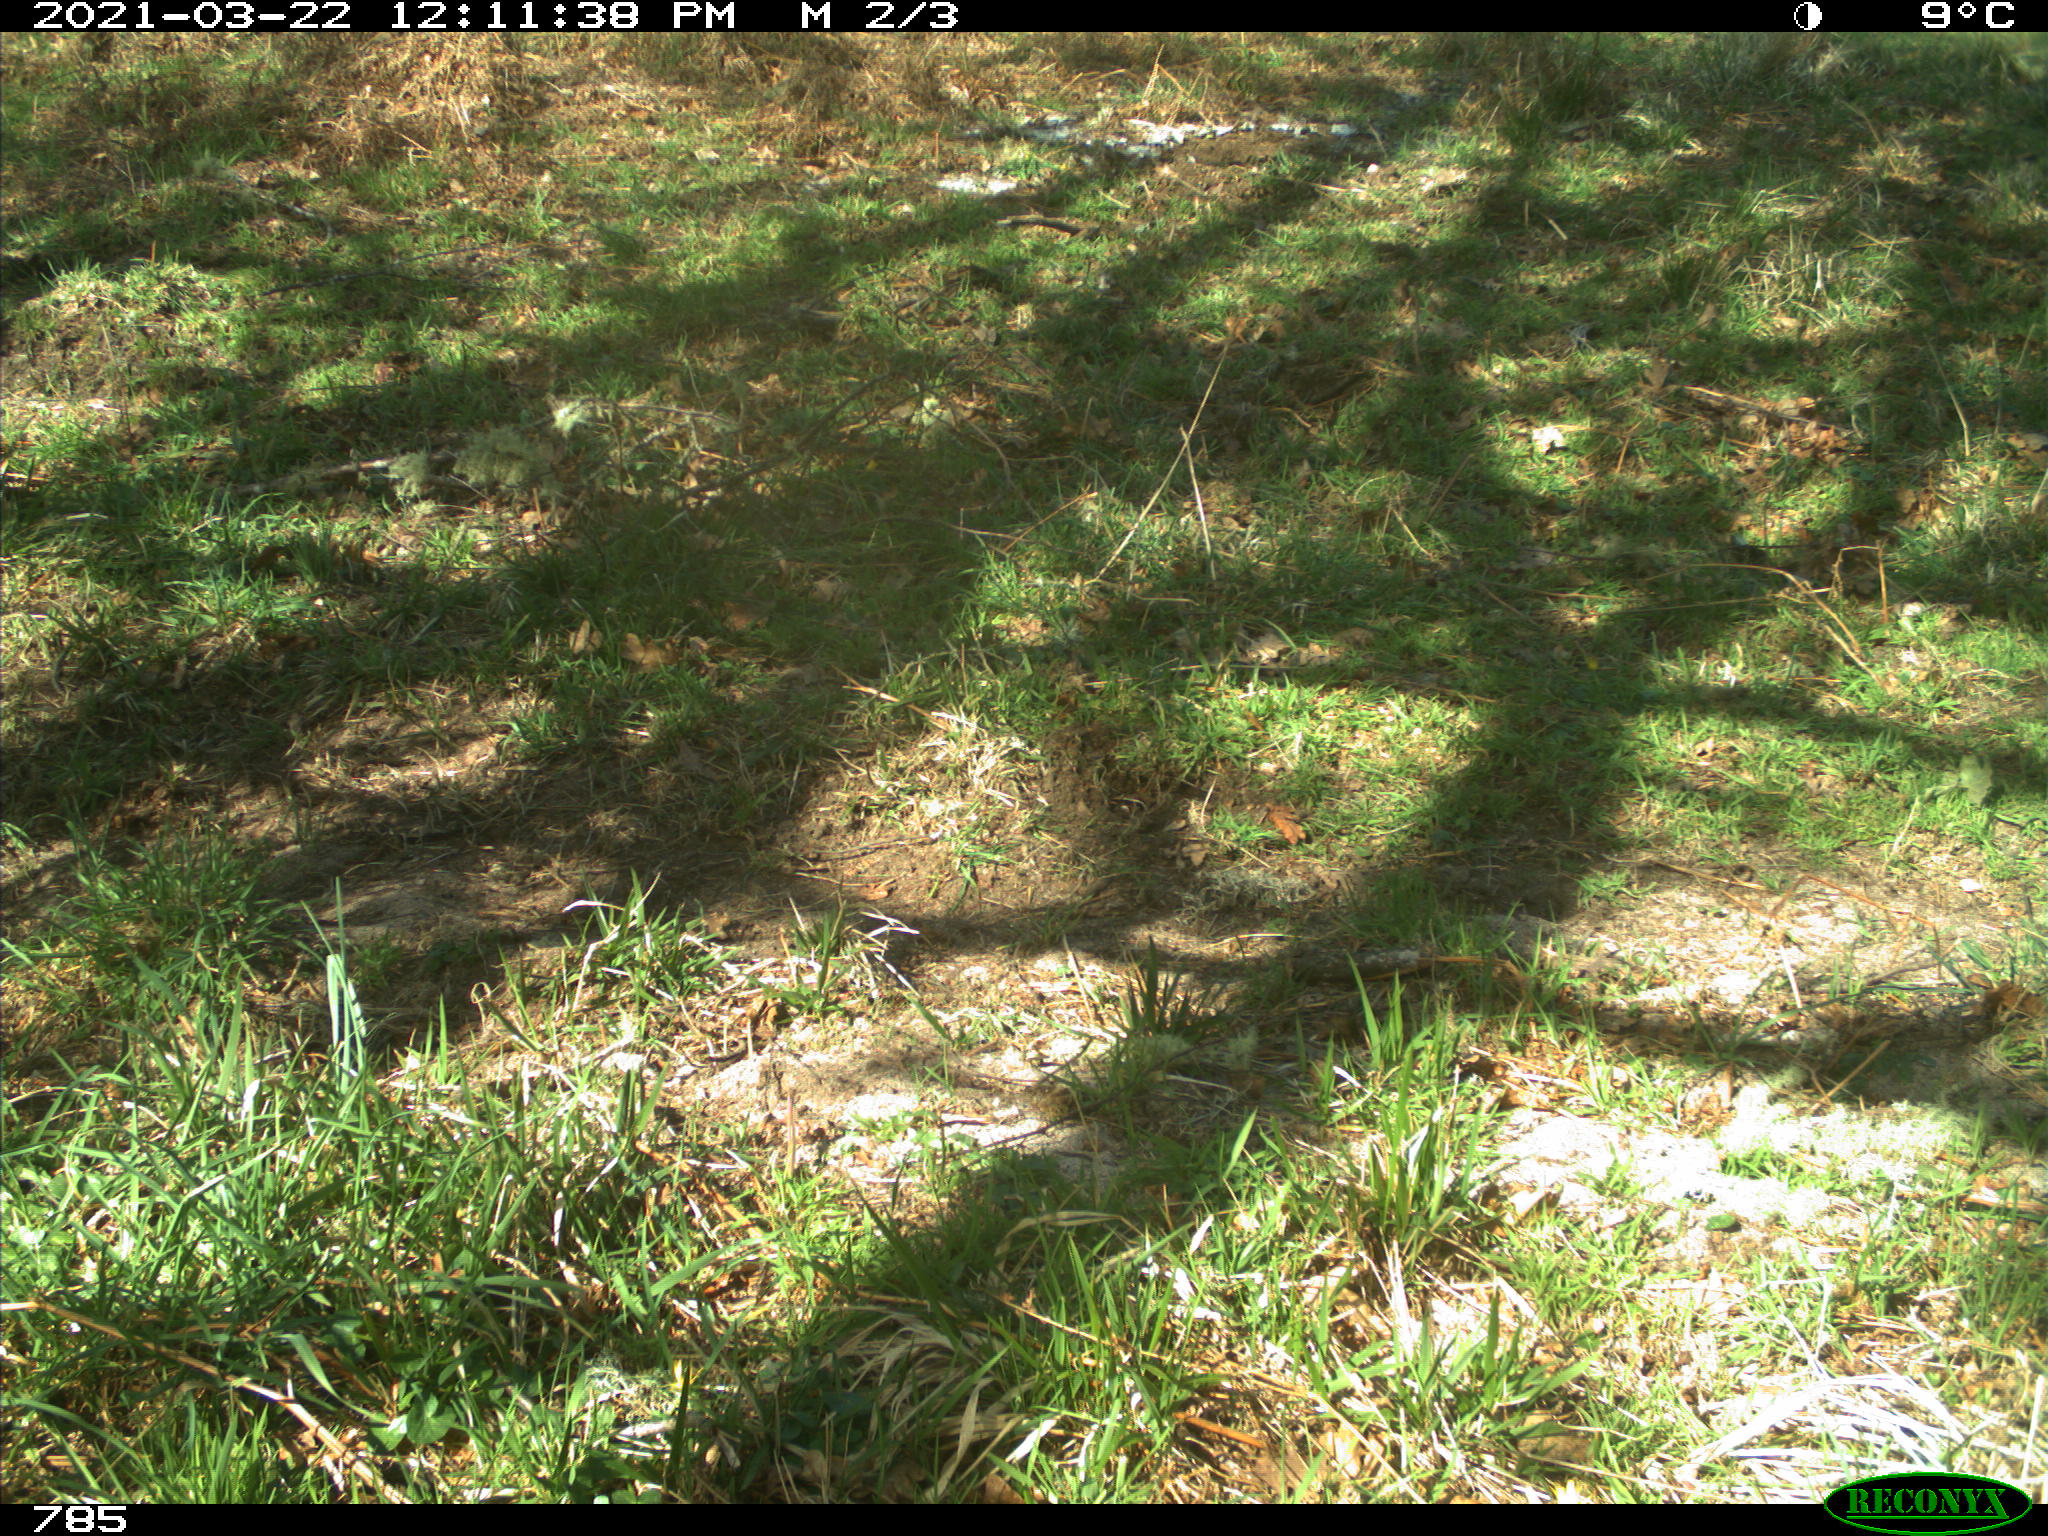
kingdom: Animalia
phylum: Chordata
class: Mammalia
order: Perissodactyla
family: Equidae
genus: Equus
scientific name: Equus caballus
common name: Horse
